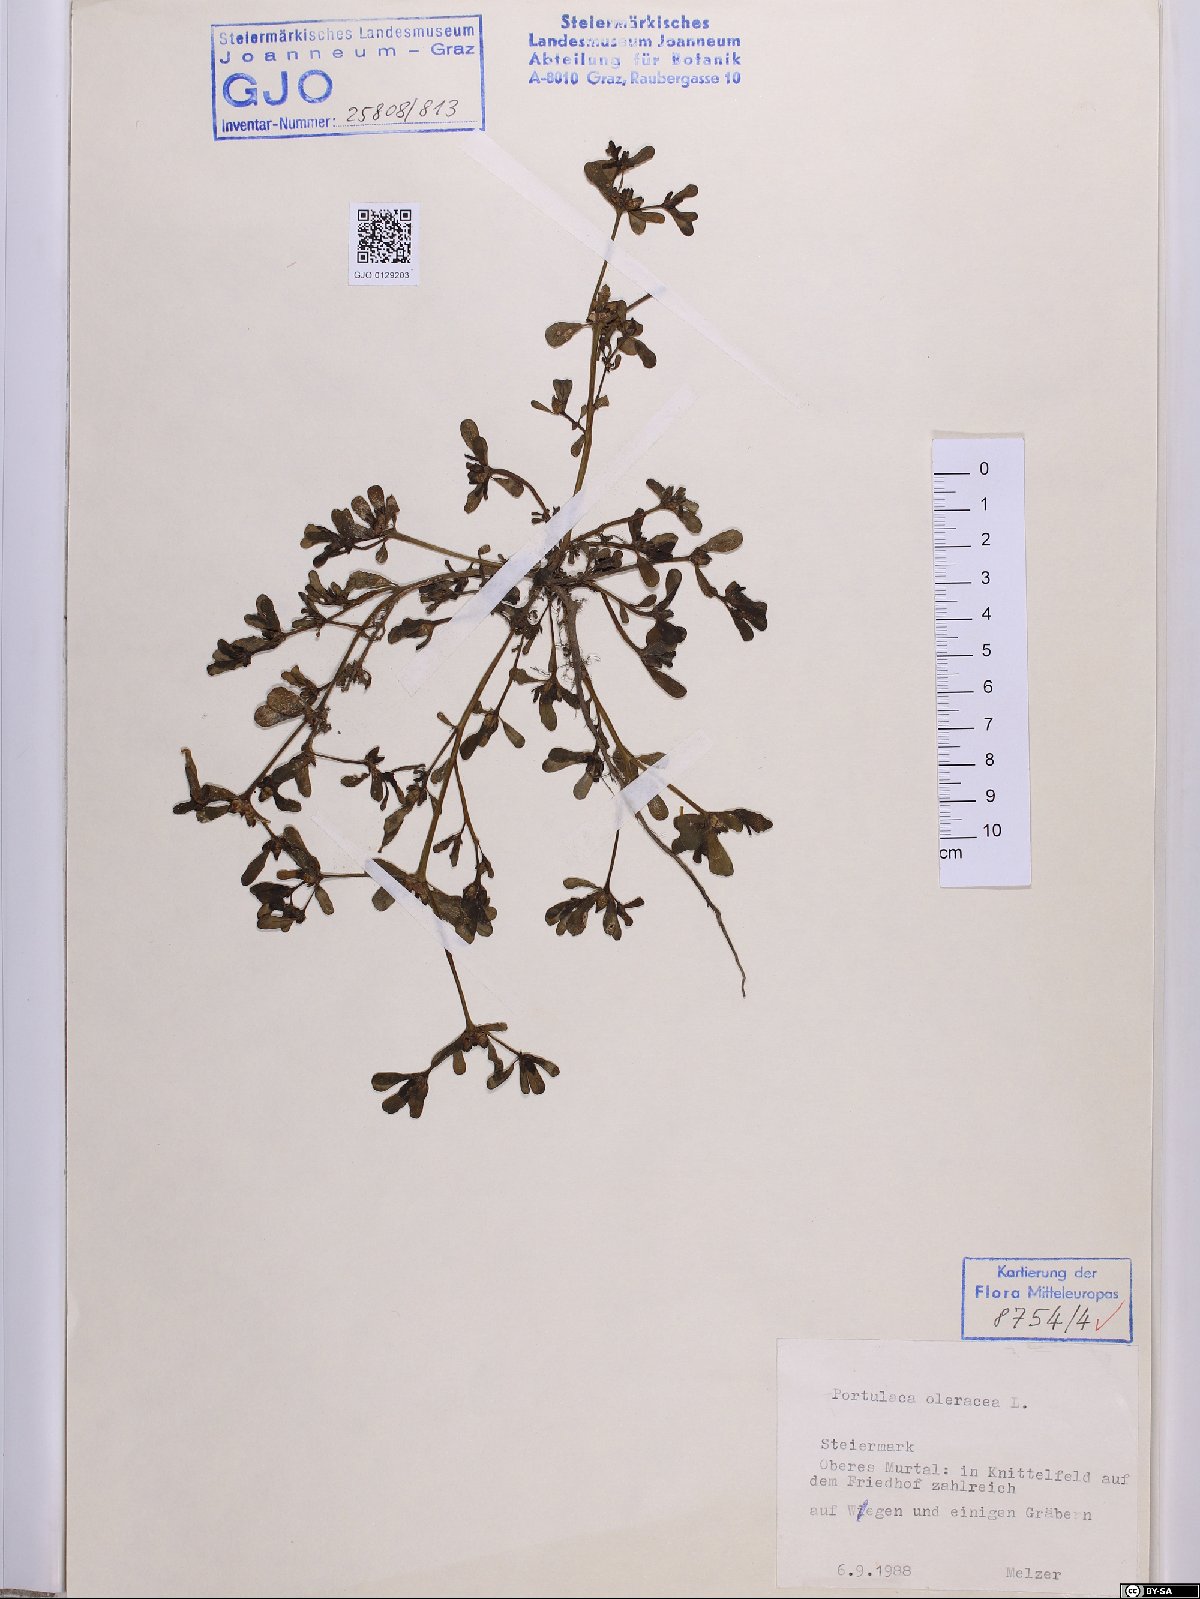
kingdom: Plantae
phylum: Tracheophyta
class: Magnoliopsida
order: Caryophyllales
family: Portulacaceae
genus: Portulaca
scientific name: Portulaca oleracea
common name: Common purslane
